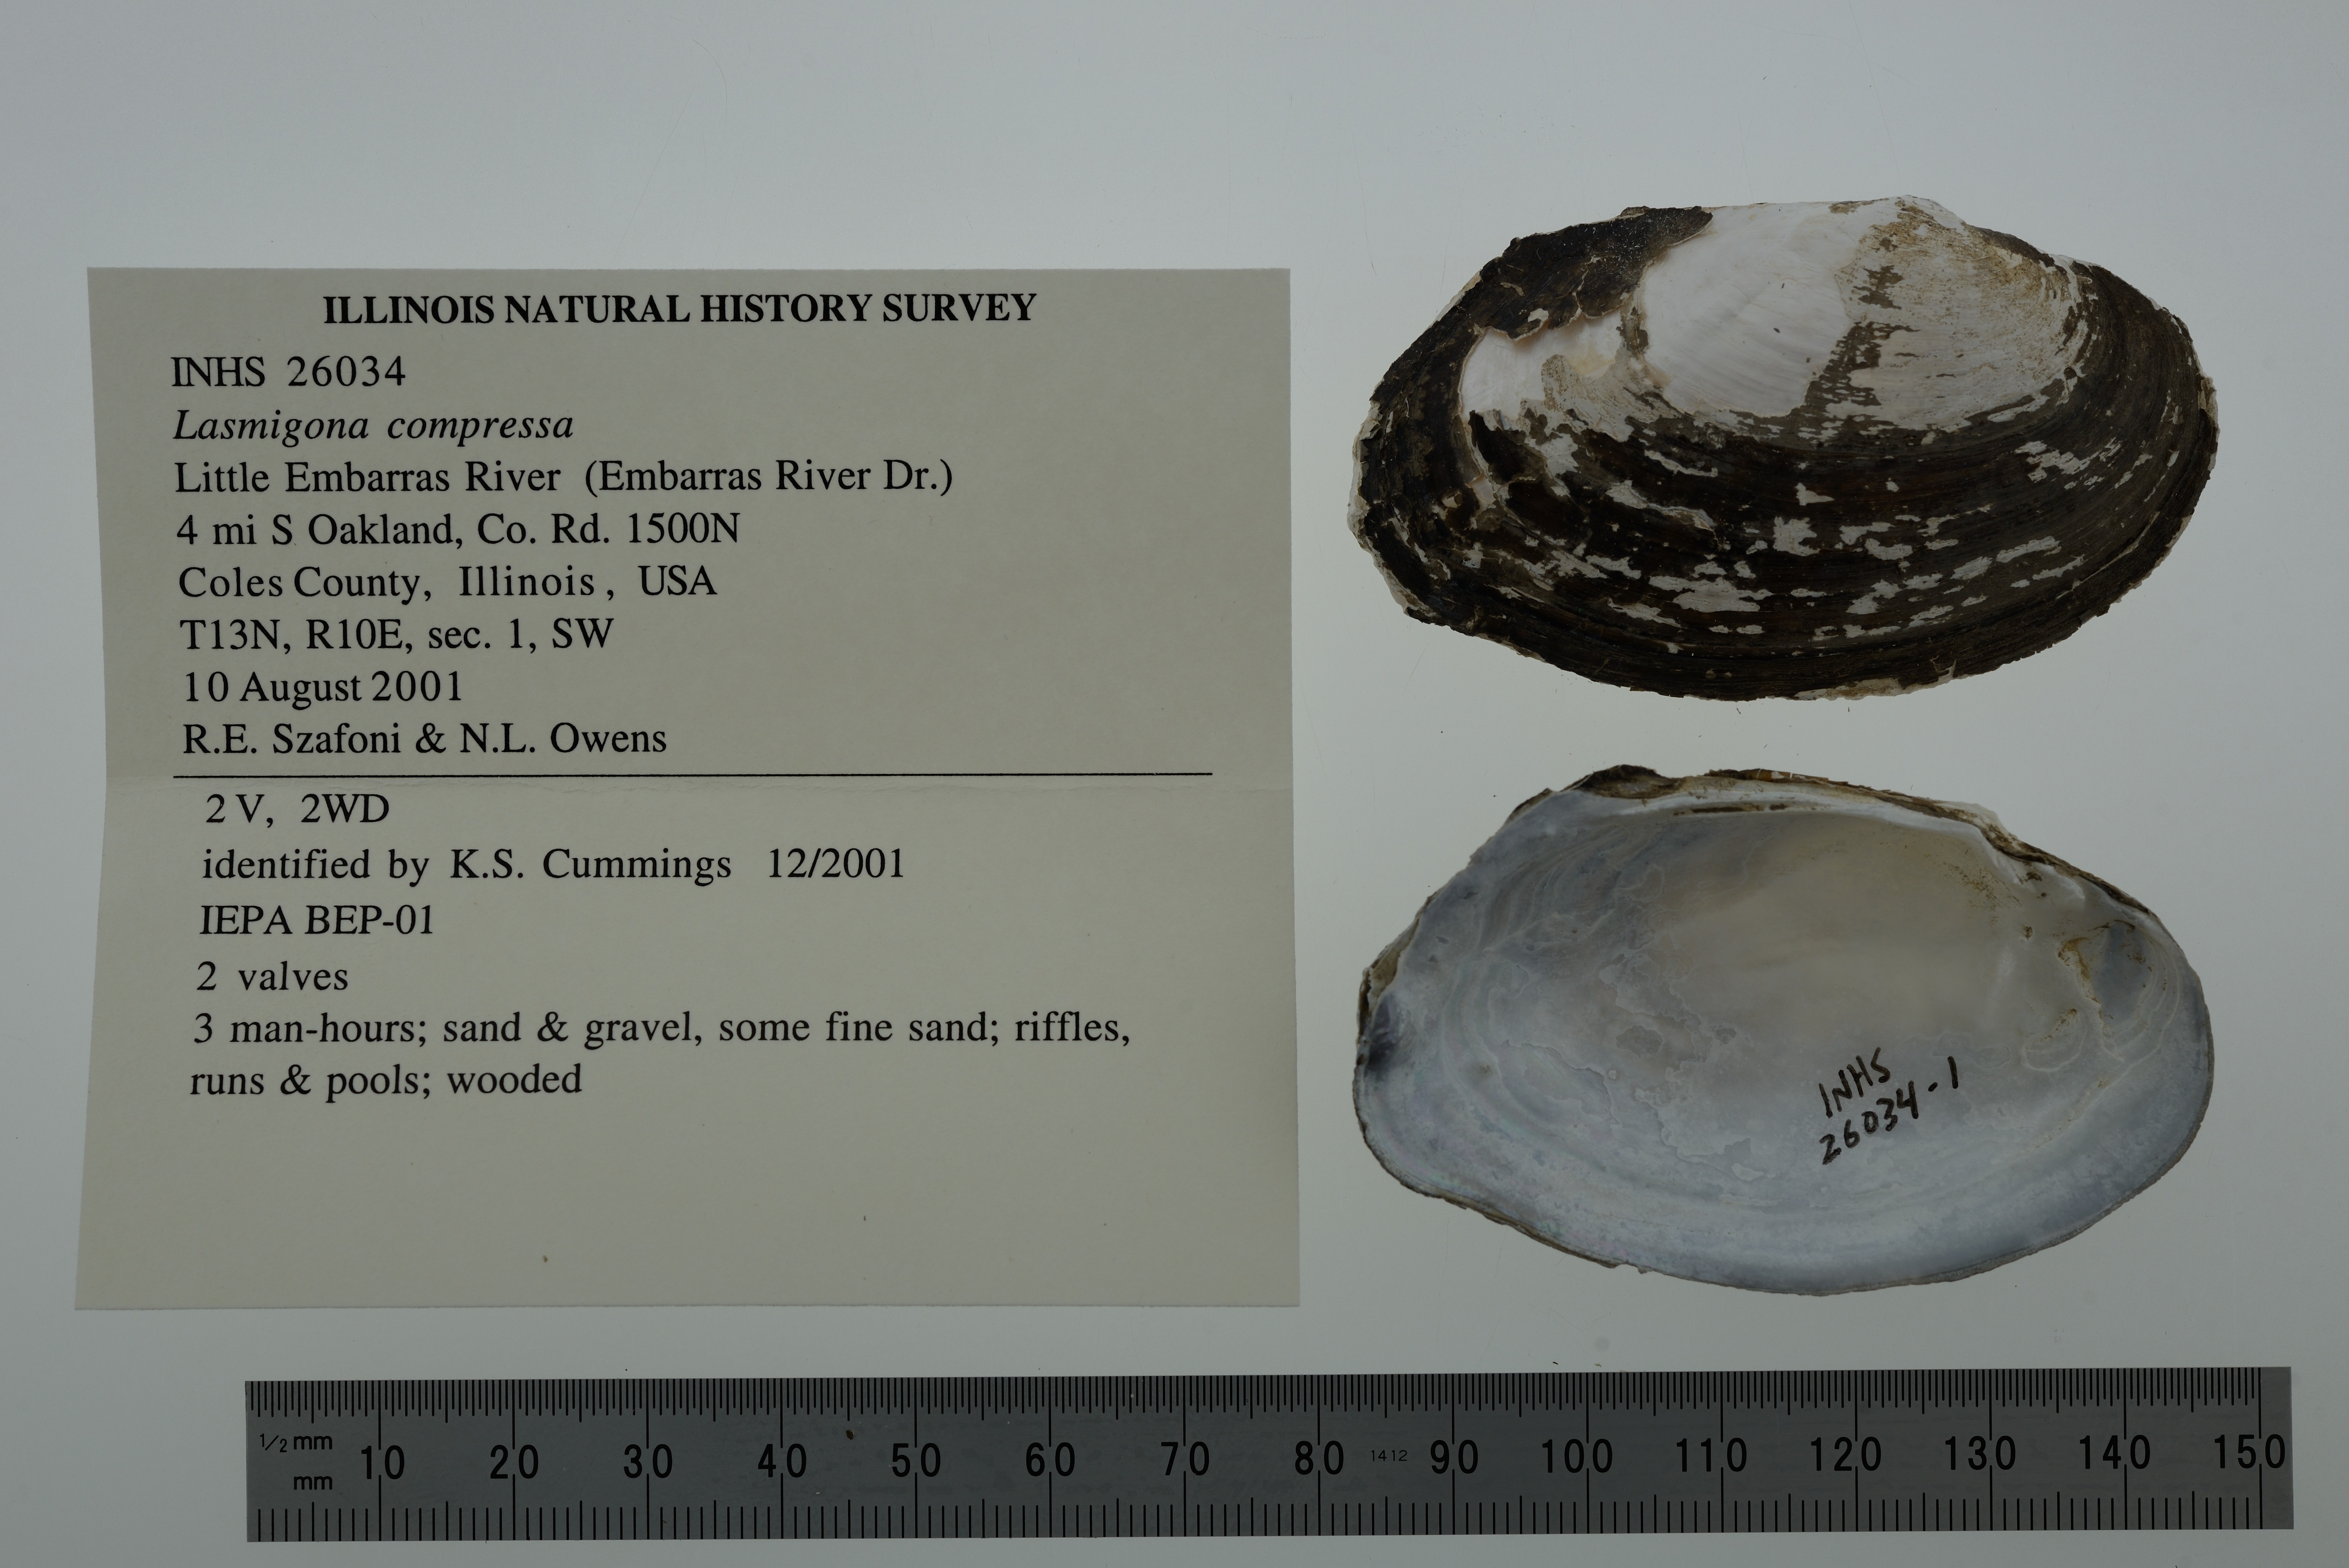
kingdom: Animalia
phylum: Mollusca
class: Bivalvia
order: Unionida
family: Unionidae
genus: Lasmigona
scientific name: Lasmigona compressa
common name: Creek heelsplitter
